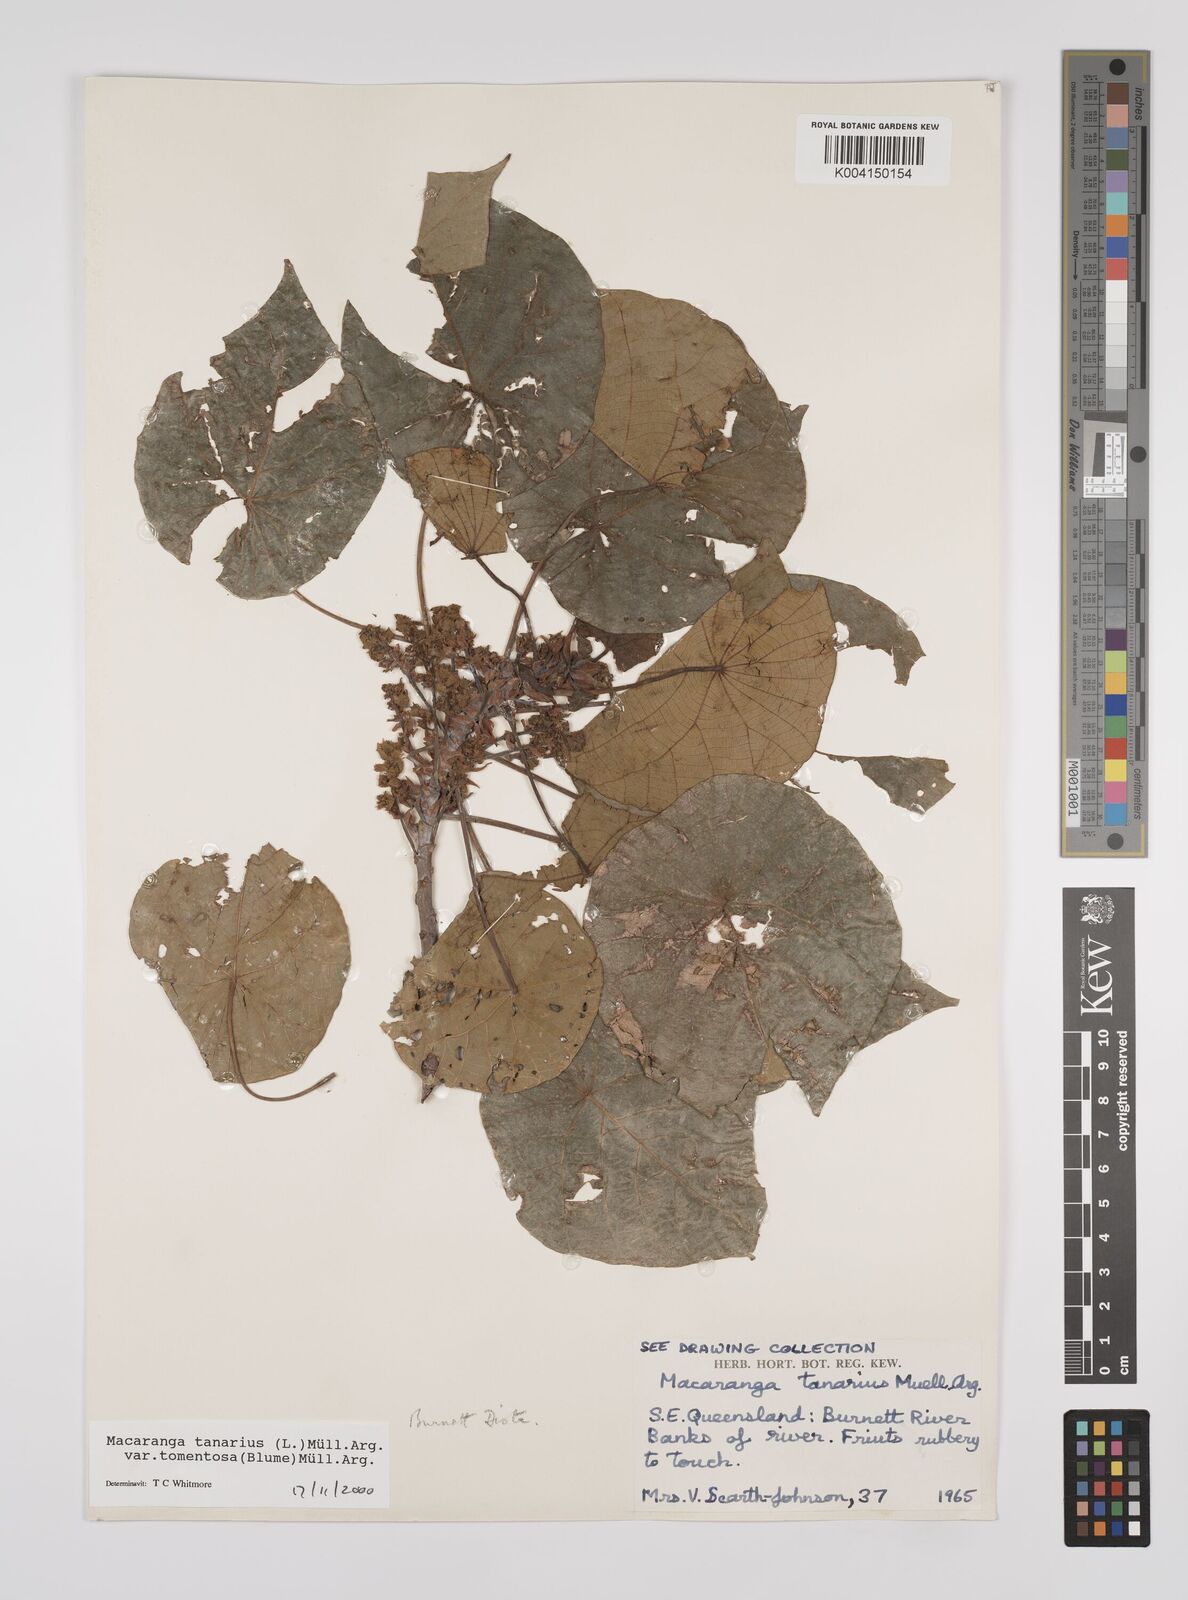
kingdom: Plantae
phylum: Tracheophyta
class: Magnoliopsida
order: Malpighiales
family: Euphorbiaceae
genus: Macaranga
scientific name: Macaranga tanarius
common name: Parasol leaf tree
